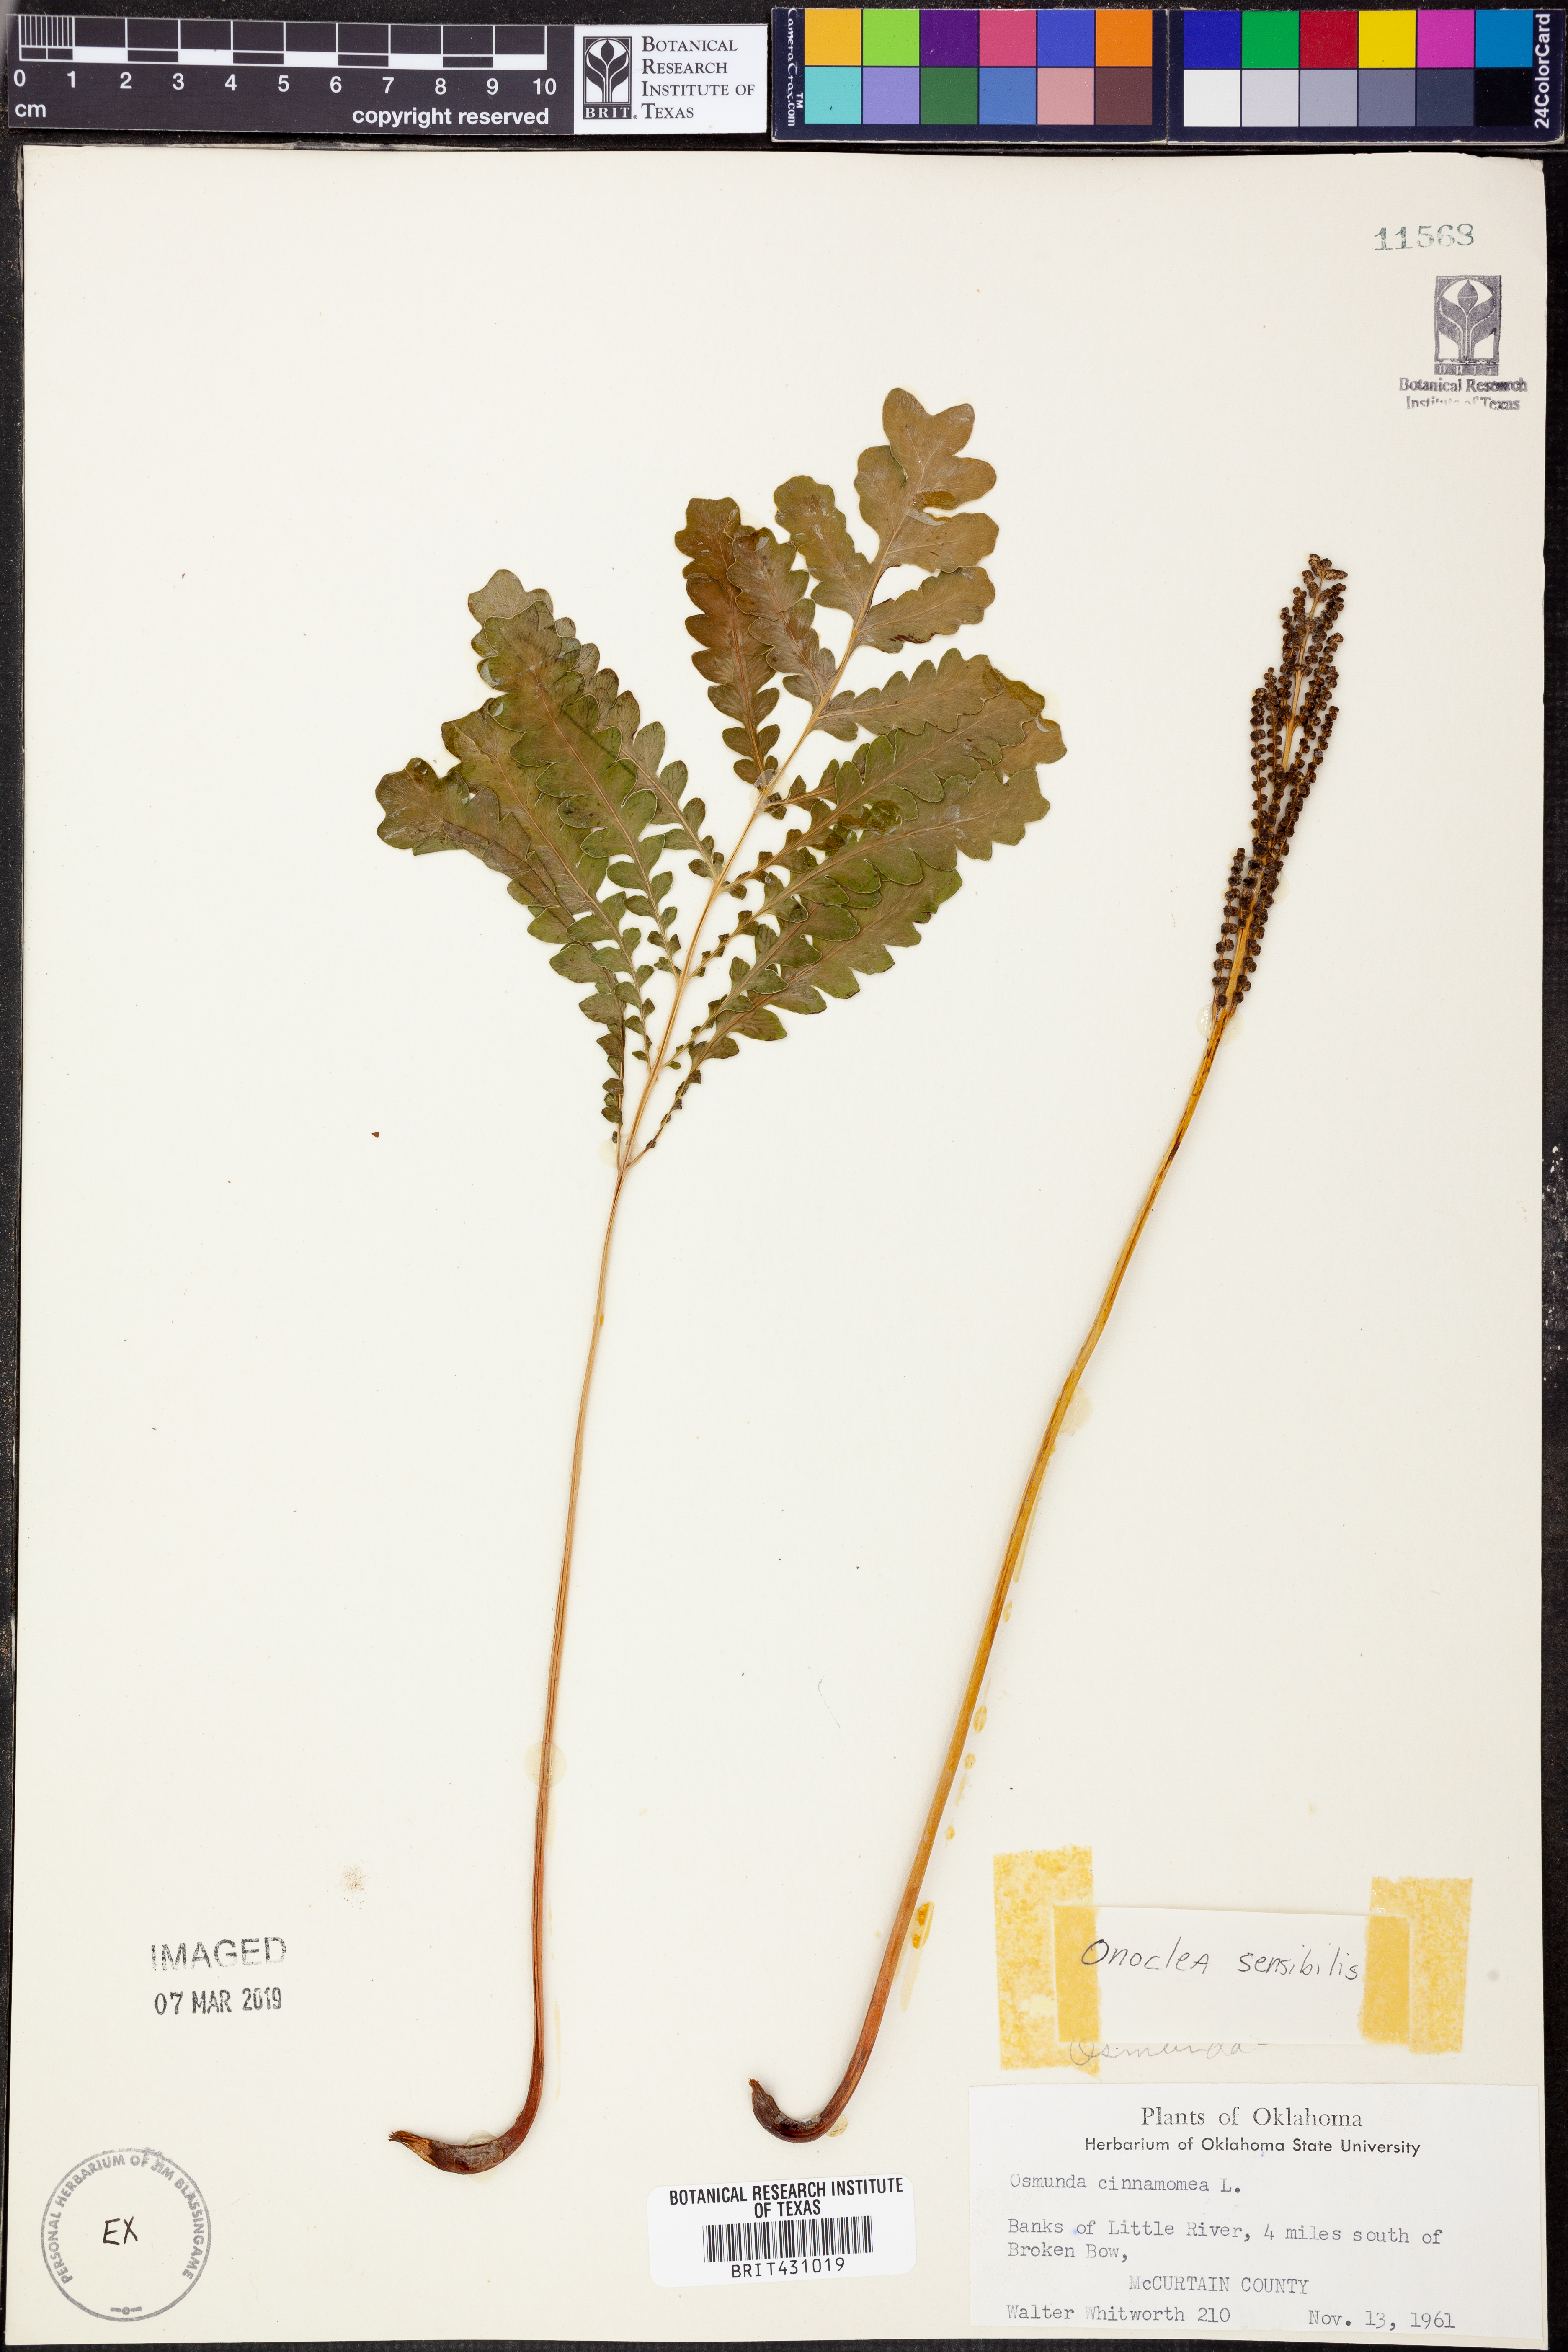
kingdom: Plantae
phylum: Tracheophyta
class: Polypodiopsida
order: Polypodiales
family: Onocleaceae
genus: Onoclea
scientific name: Onoclea sensibilis
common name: Sensitive fern
